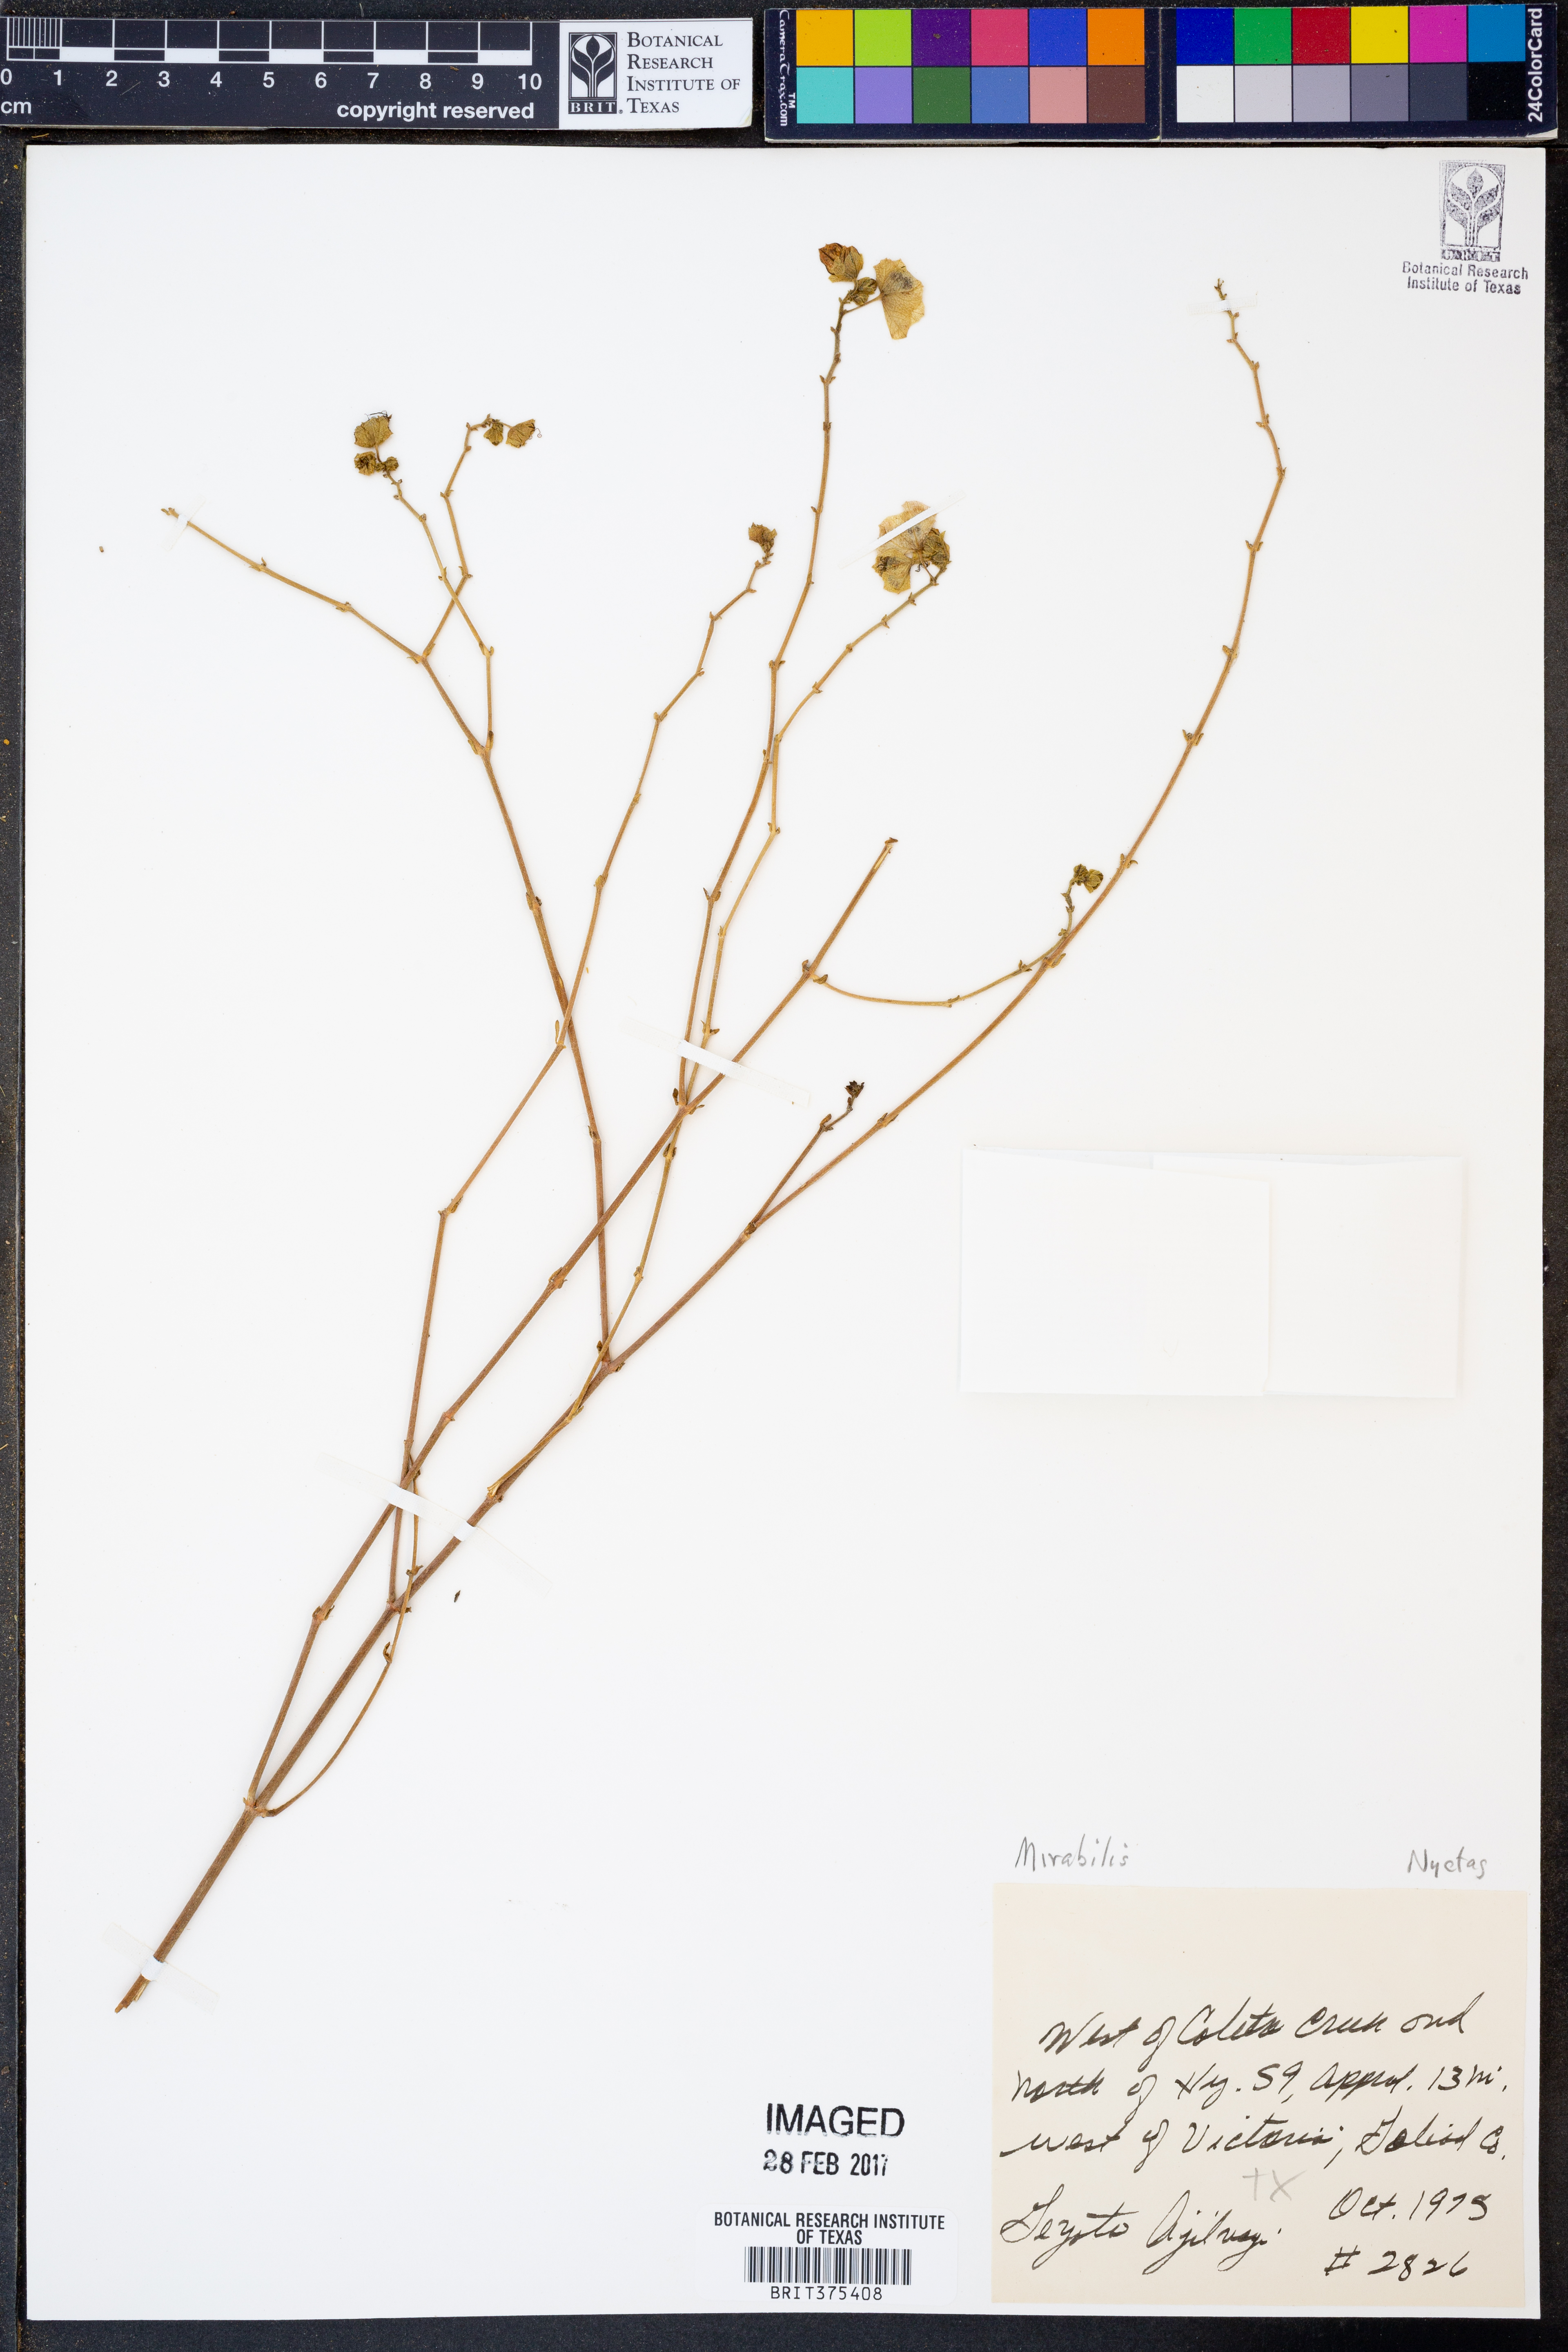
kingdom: Plantae
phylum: Tracheophyta
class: Magnoliopsida
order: Caryophyllales
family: Nyctaginaceae
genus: Mirabilis
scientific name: Mirabilis
